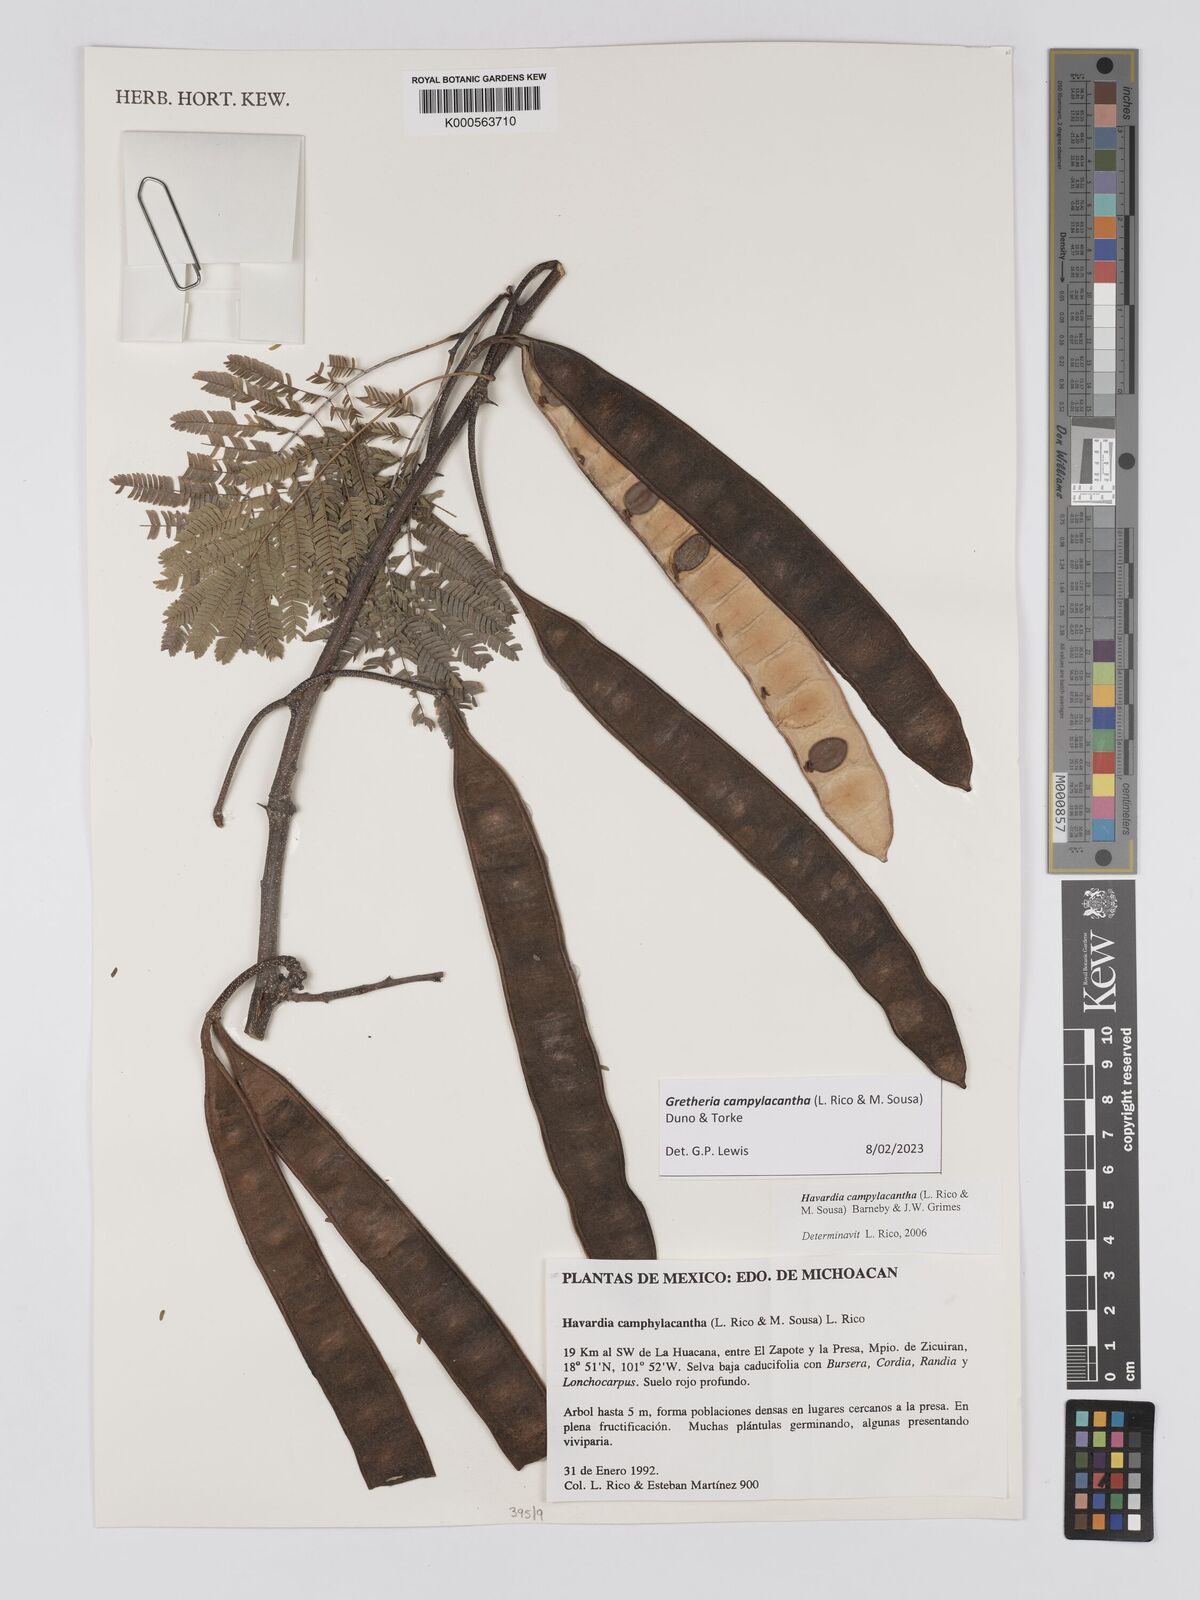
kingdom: Plantae
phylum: Tracheophyta
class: Magnoliopsida
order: Fabales
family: Fabaceae
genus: Havardia
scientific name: Havardia campylacantha
